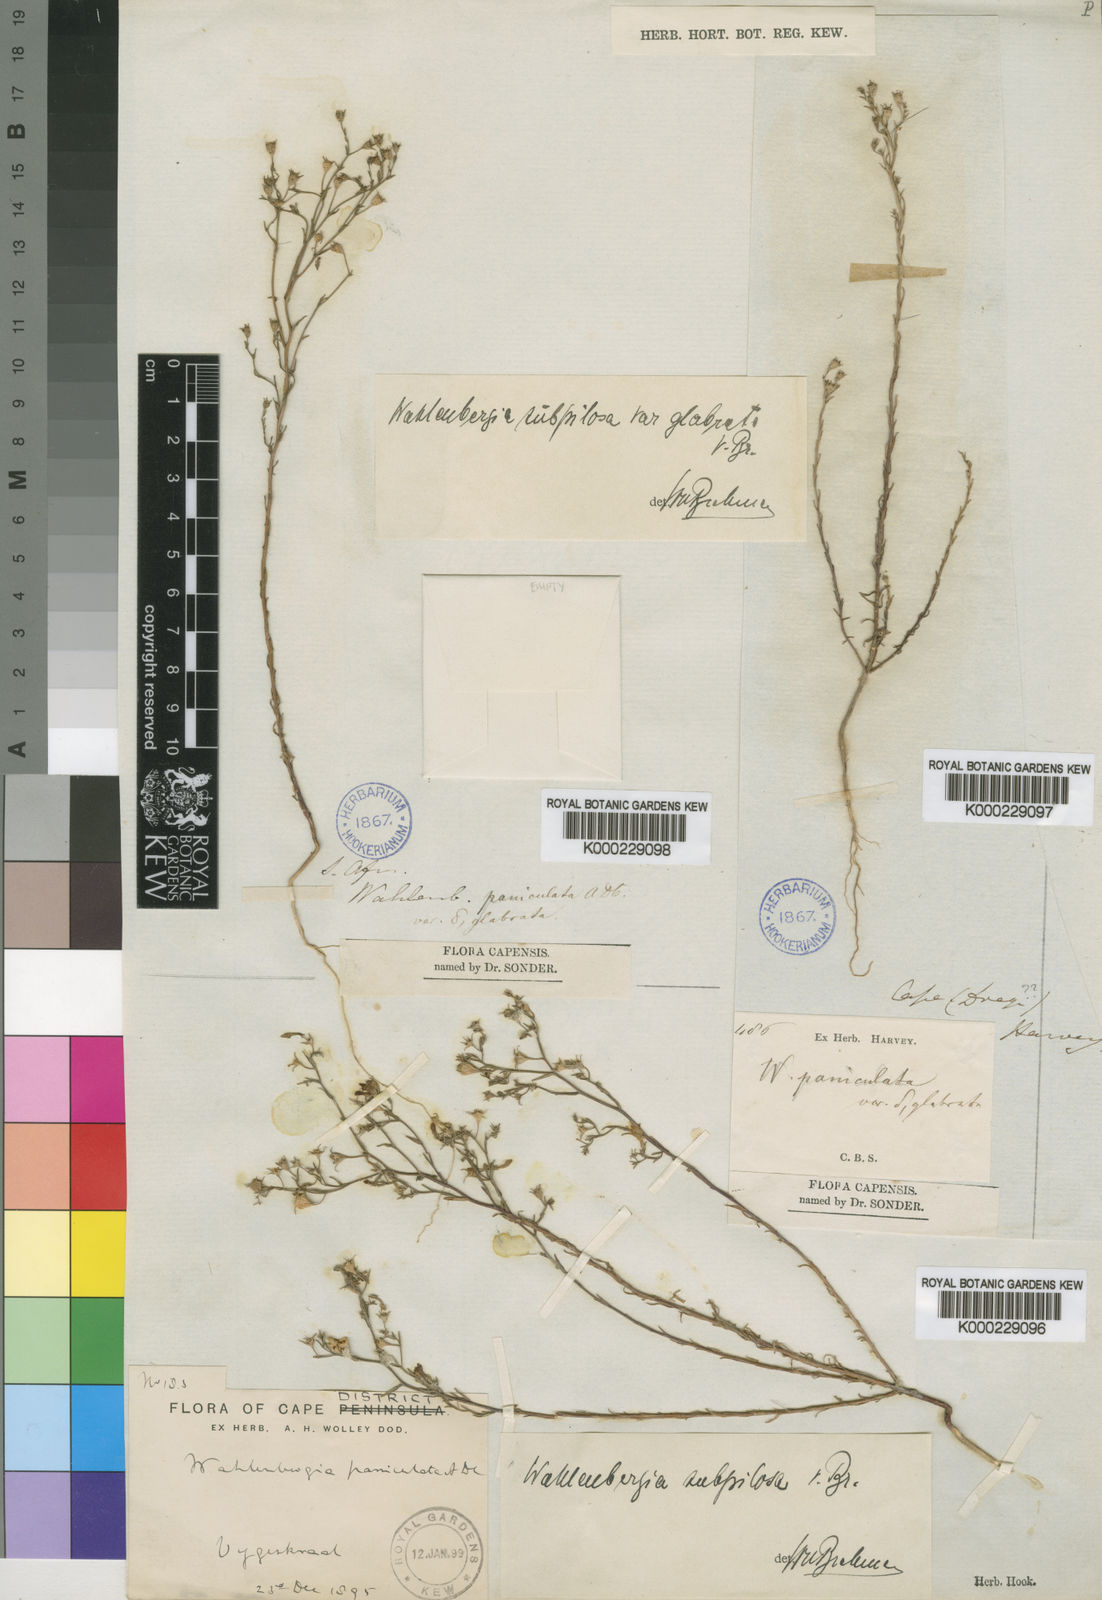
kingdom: Plantae
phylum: Tracheophyta
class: Magnoliopsida
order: Asterales
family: Campanulaceae
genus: Wahlenbergia
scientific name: Wahlenbergia subpilosa
